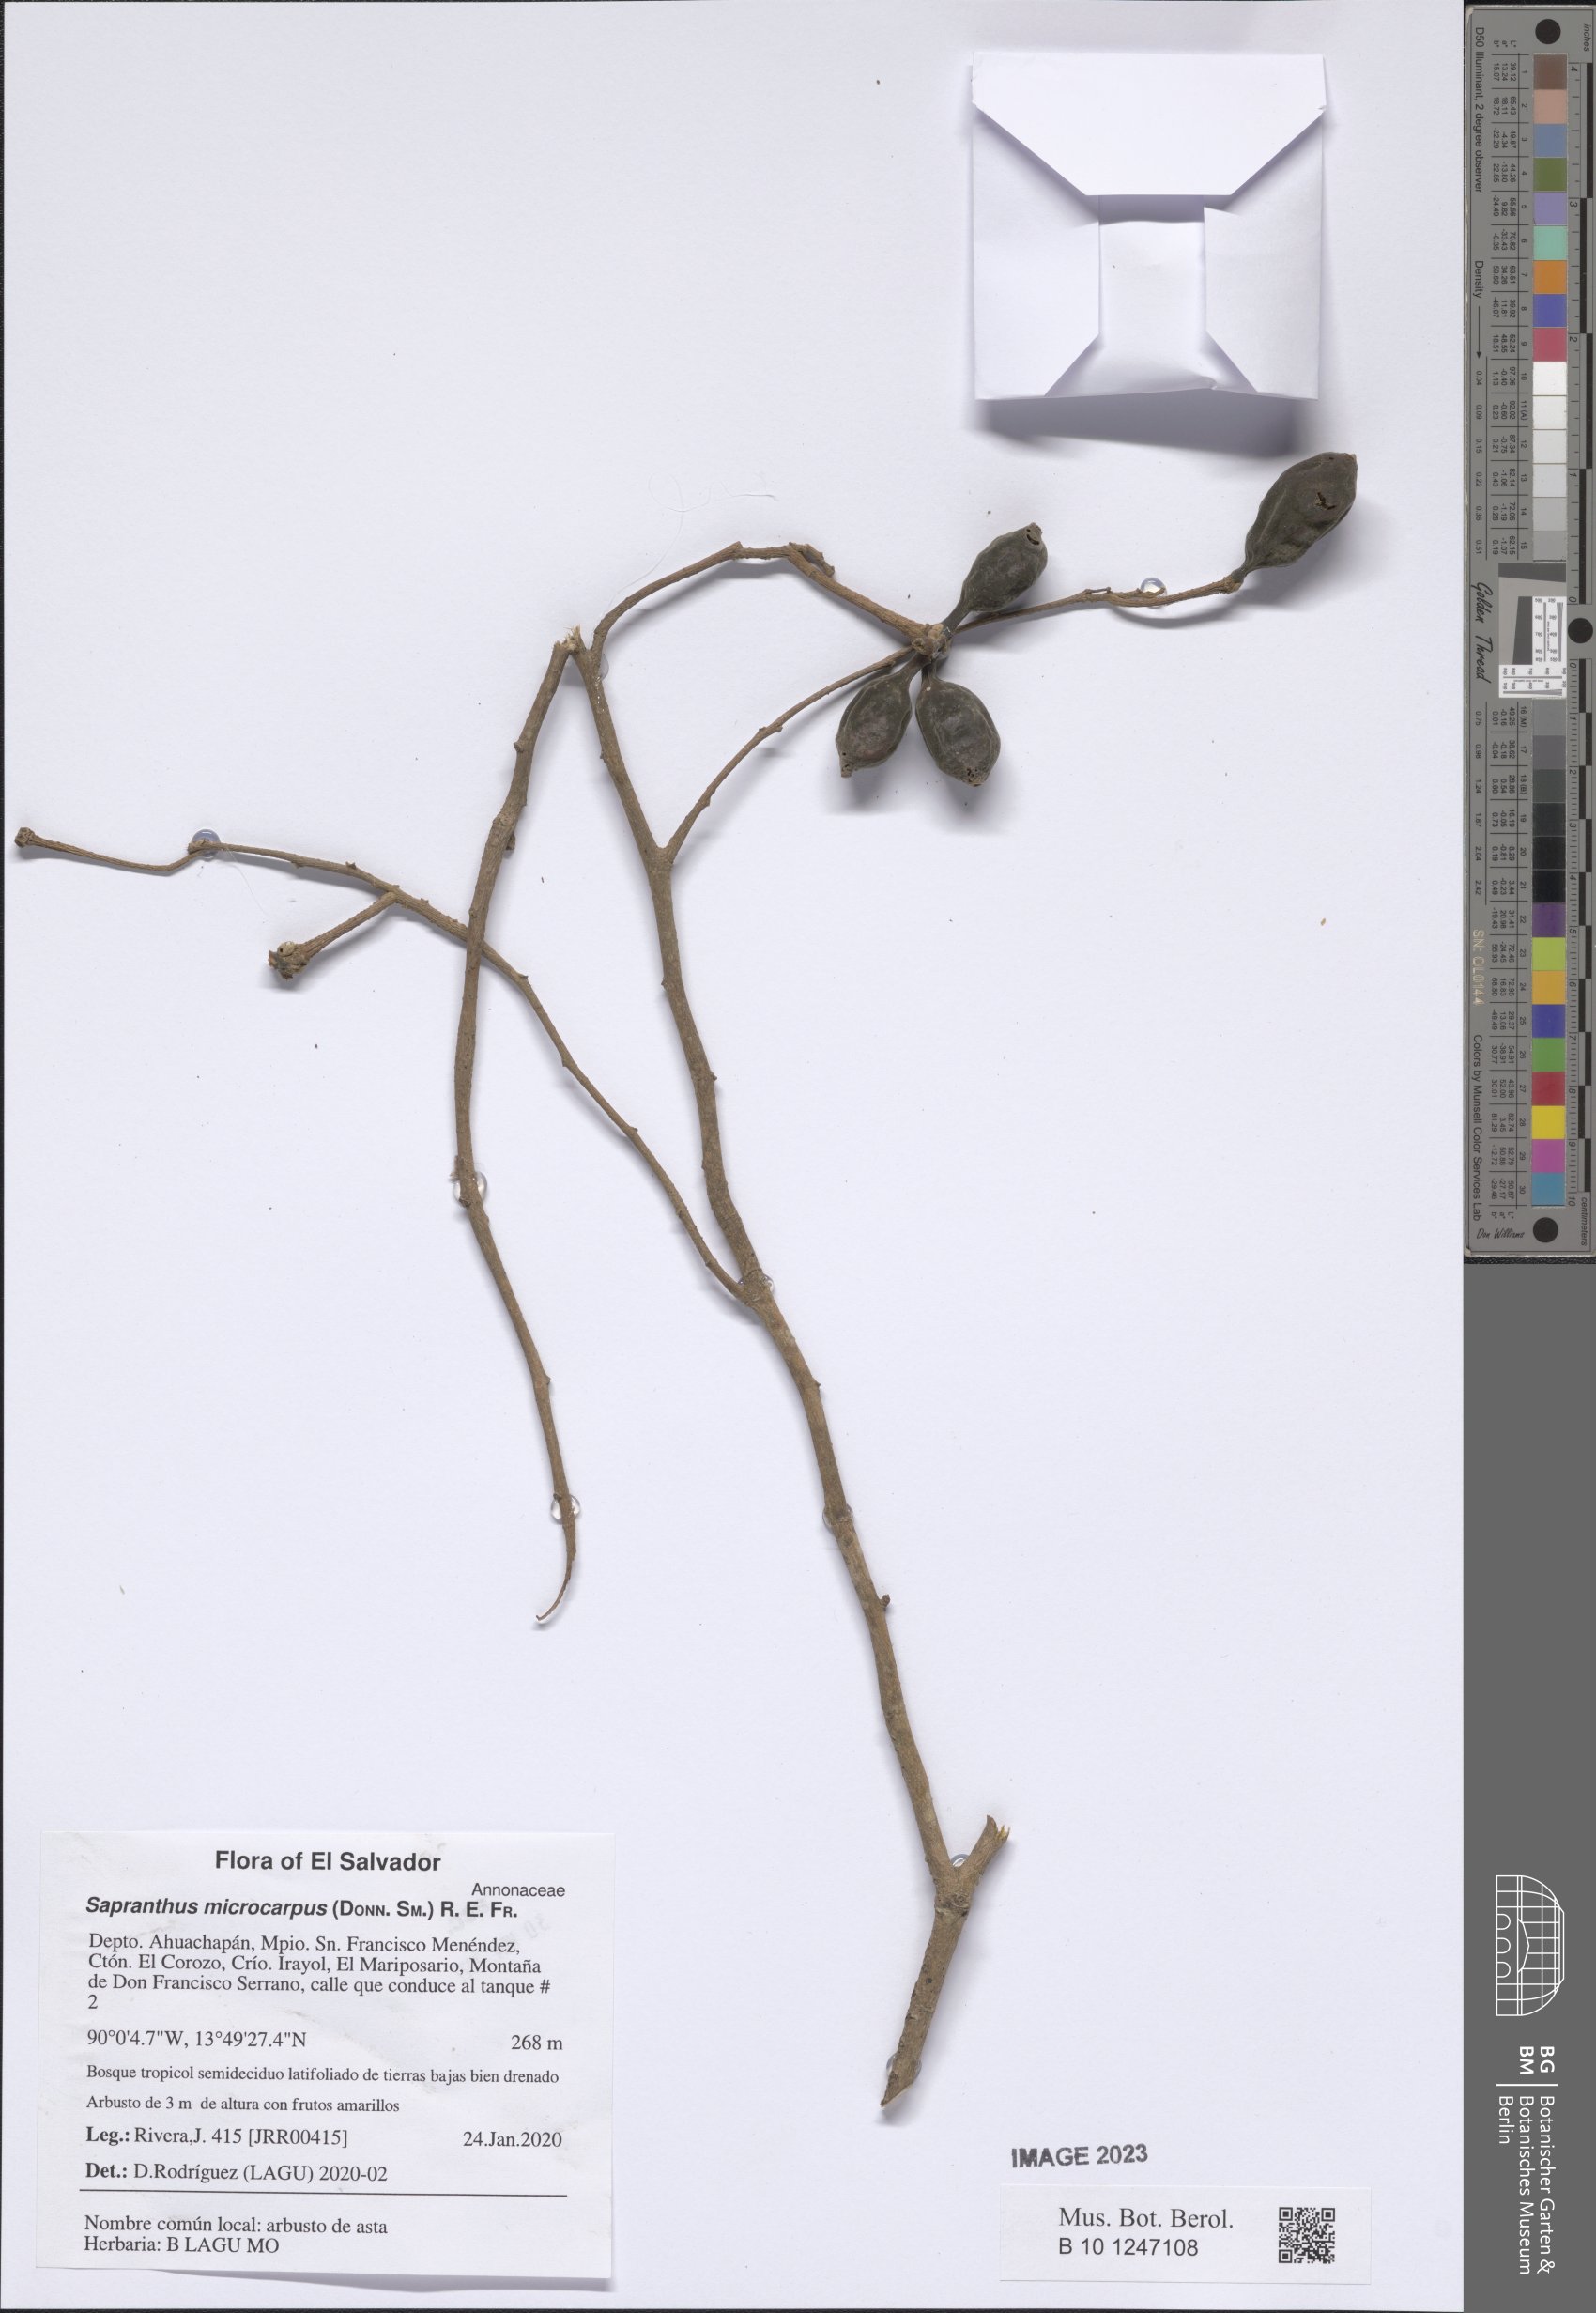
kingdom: Plantae
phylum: Tracheophyta
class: Magnoliopsida
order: Magnoliales
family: Annonaceae
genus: Sapranthus
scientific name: Sapranthus microcarpus
